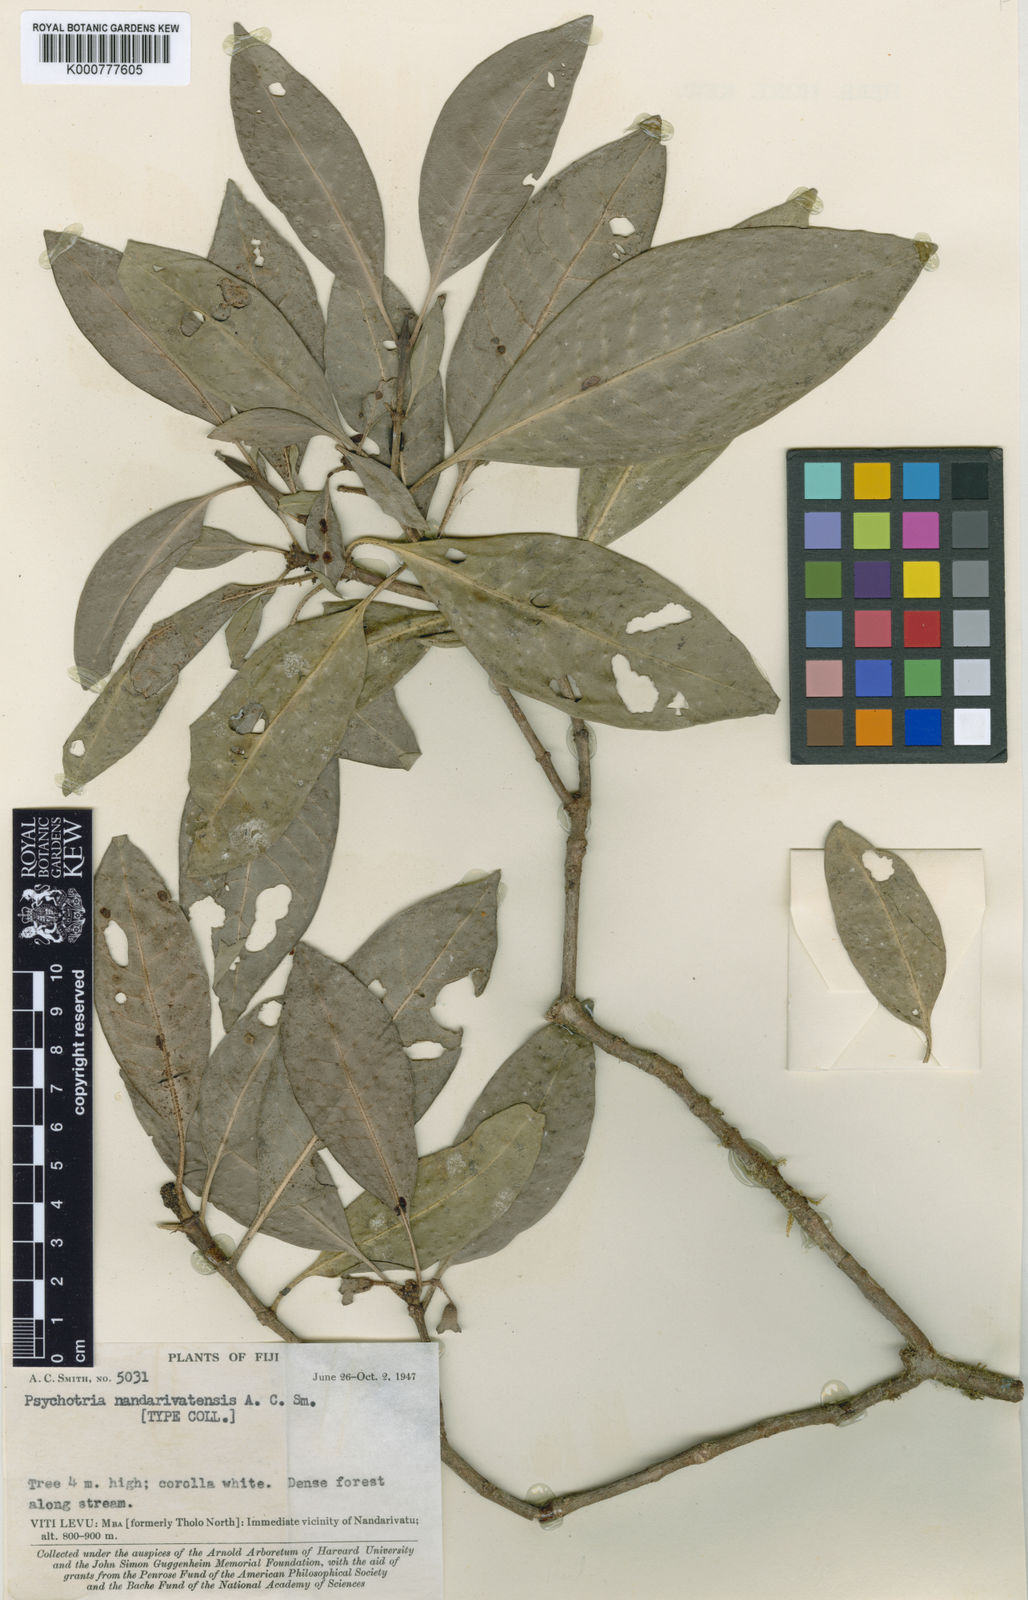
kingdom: Plantae
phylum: Tracheophyta
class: Magnoliopsida
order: Gentianales
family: Rubiaceae
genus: Psychotria
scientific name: Psychotria nandarivatensis
